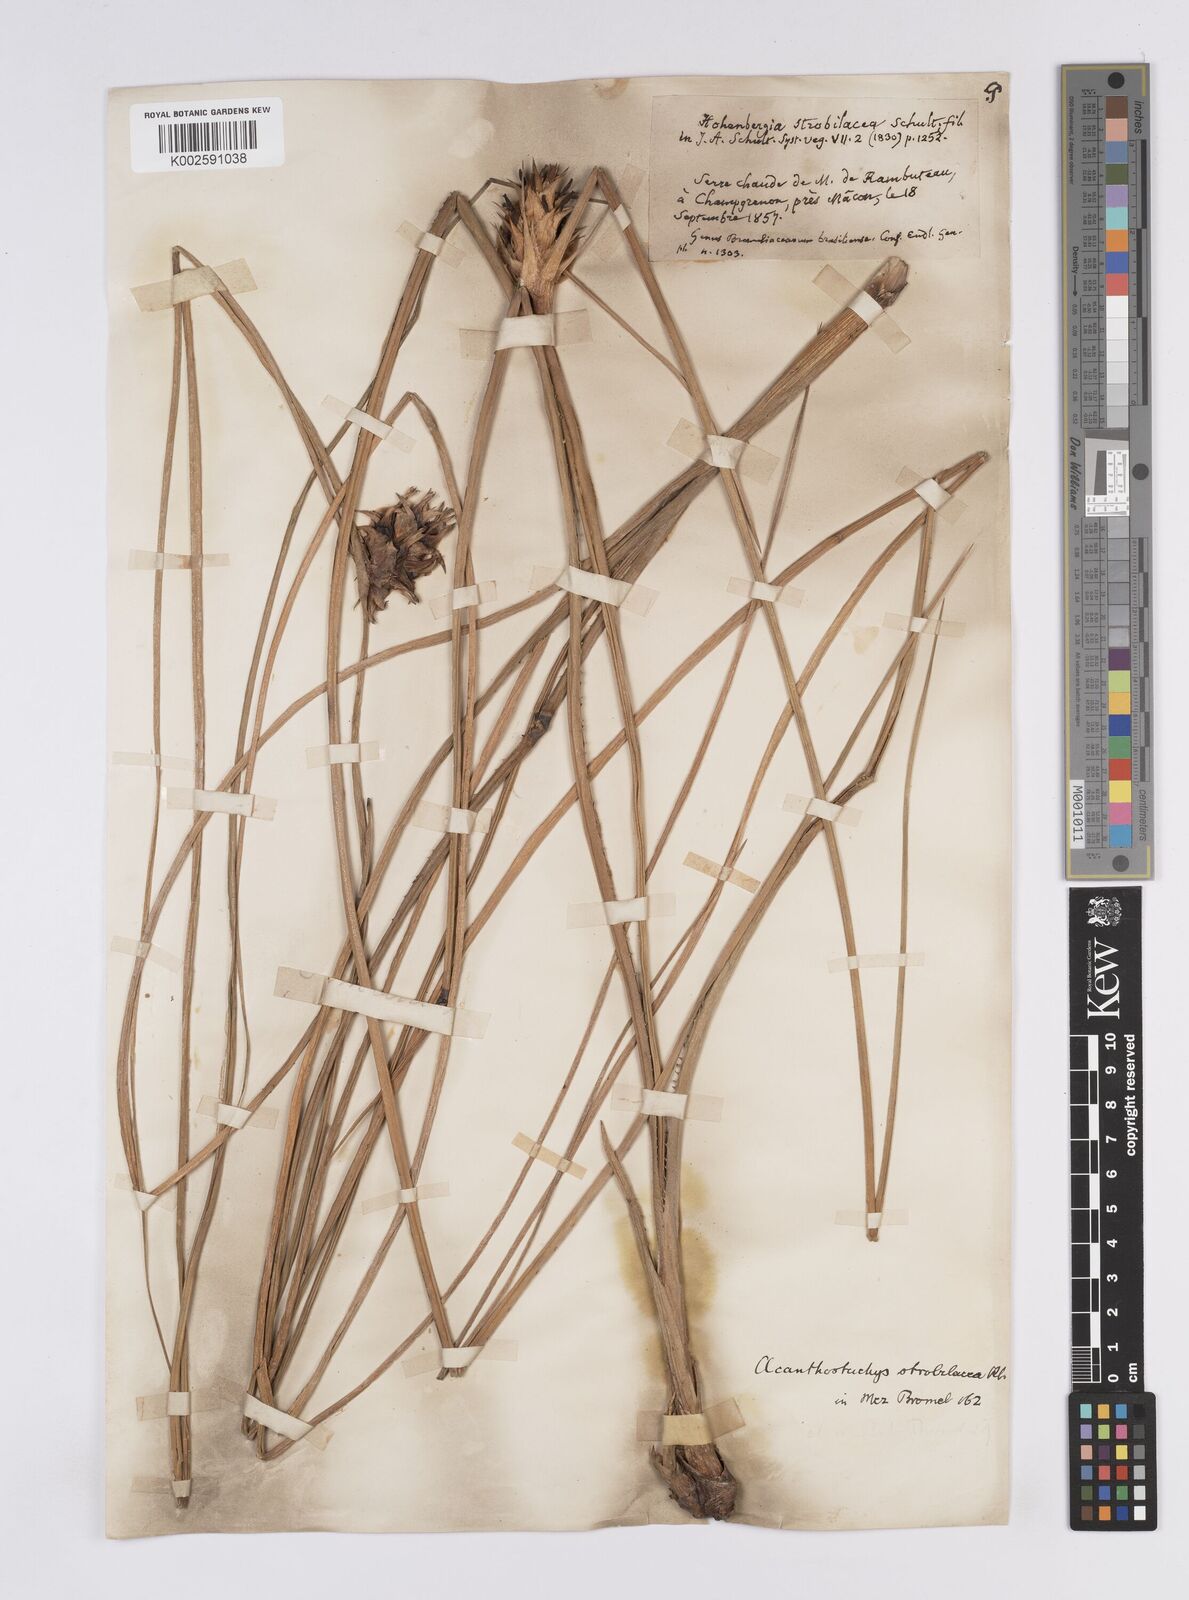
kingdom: Plantae
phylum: Tracheophyta
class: Liliopsida
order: Poales
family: Bromeliaceae
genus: Acanthostachys
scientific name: Acanthostachys strobilacea
